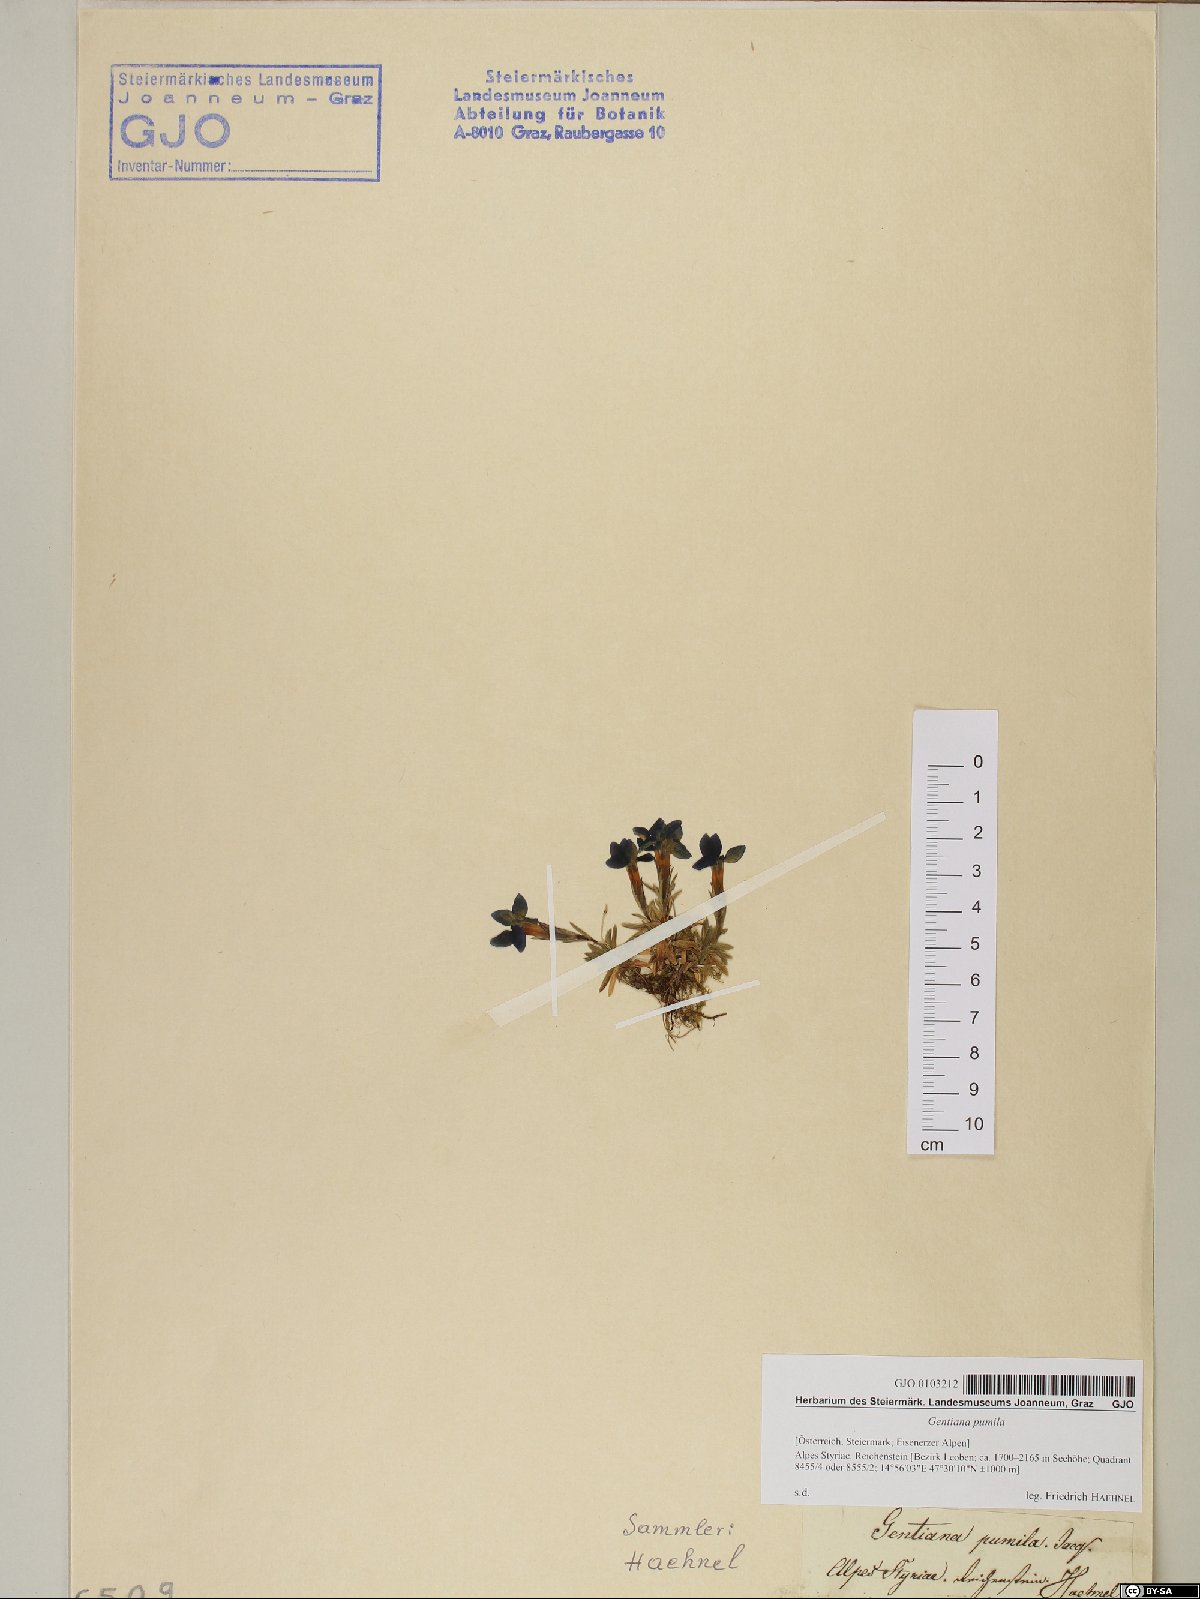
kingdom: Plantae
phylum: Tracheophyta
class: Magnoliopsida
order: Gentianales
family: Gentianaceae
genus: Gentiana
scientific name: Gentiana pumila
